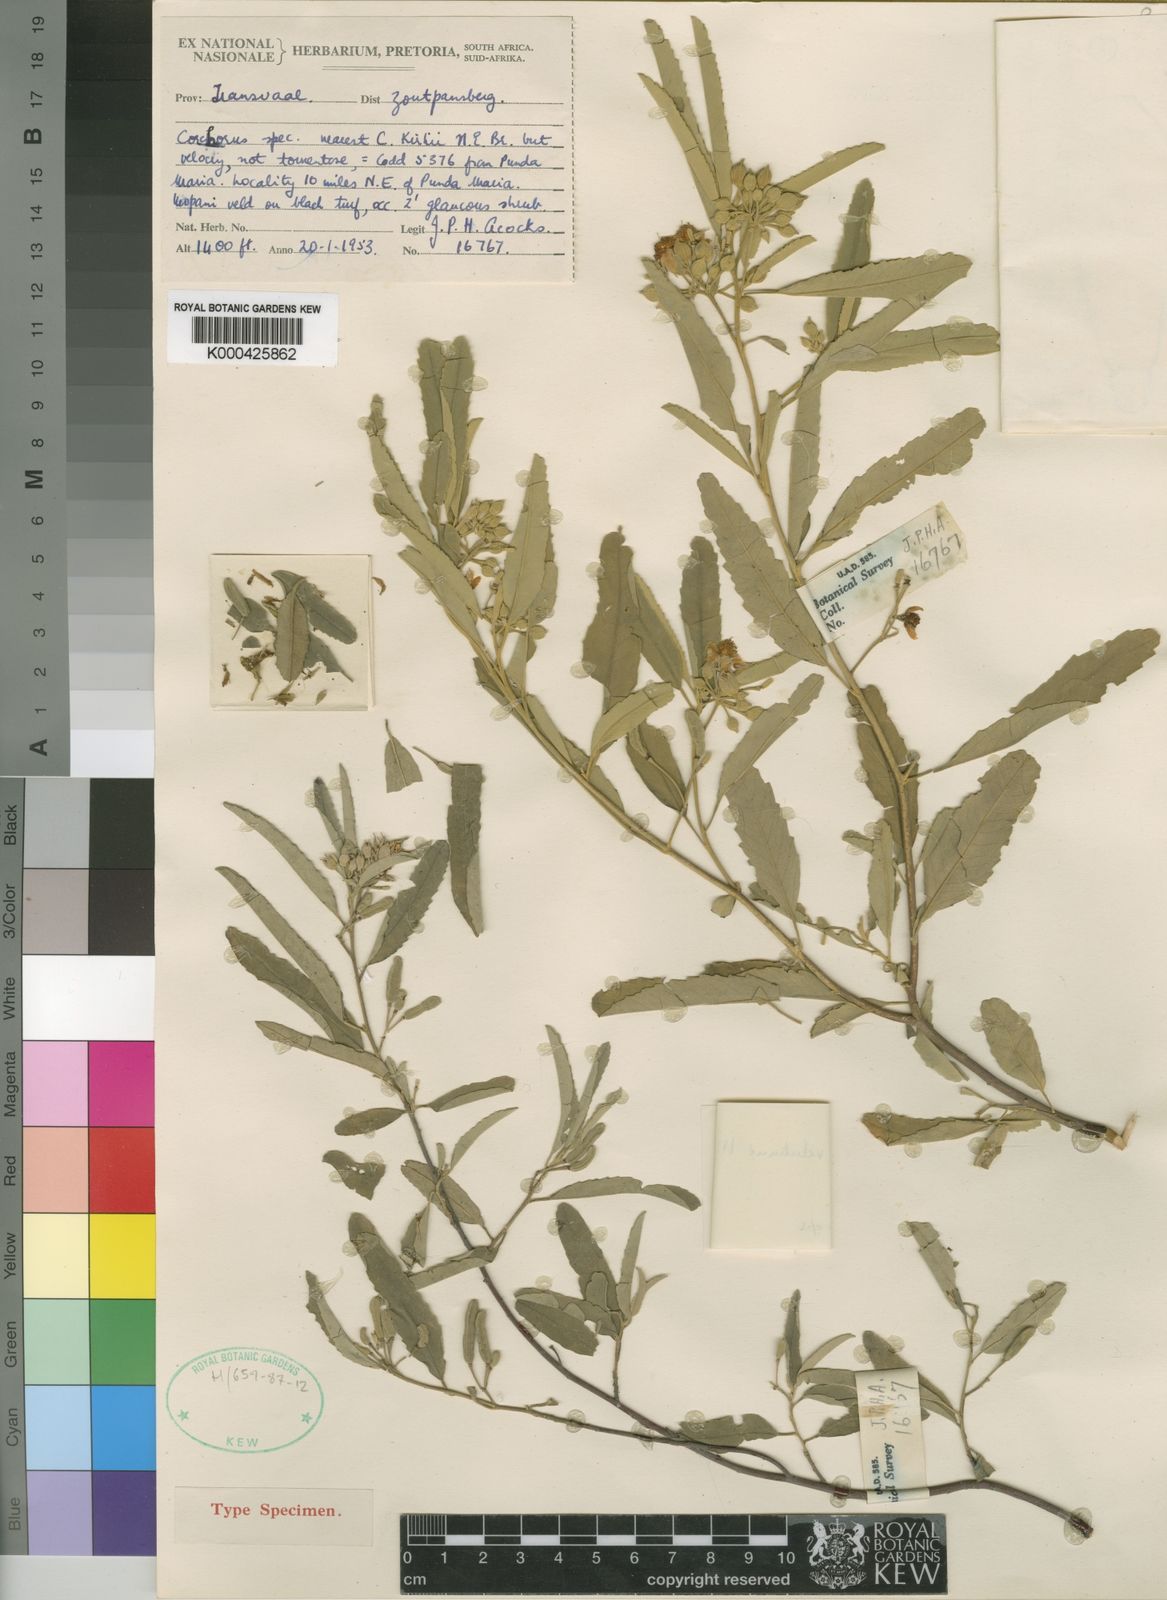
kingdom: Plantae
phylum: Tracheophyta
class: Magnoliopsida
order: Malvales
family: Malvaceae
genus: Corchorus
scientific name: Corchorus velutinus
